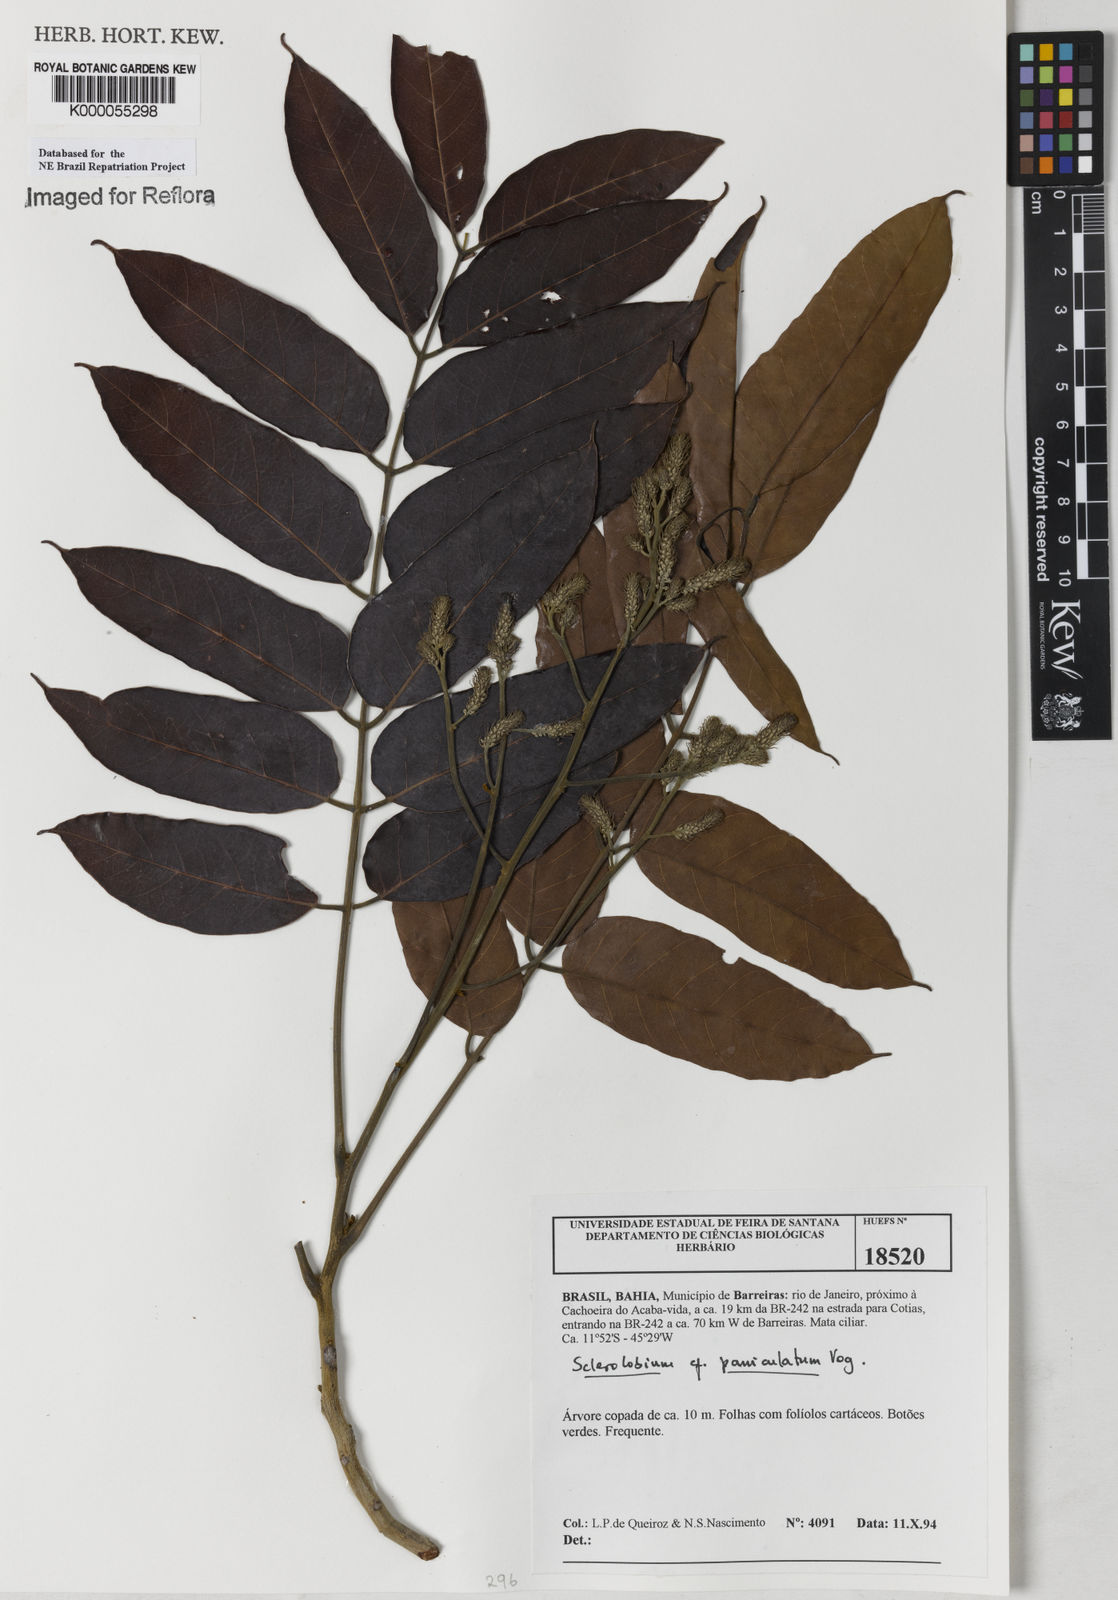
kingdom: Plantae
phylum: Tracheophyta
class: Magnoliopsida
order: Fabales
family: Fabaceae
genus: Tachigali
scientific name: Tachigali vulgaris
